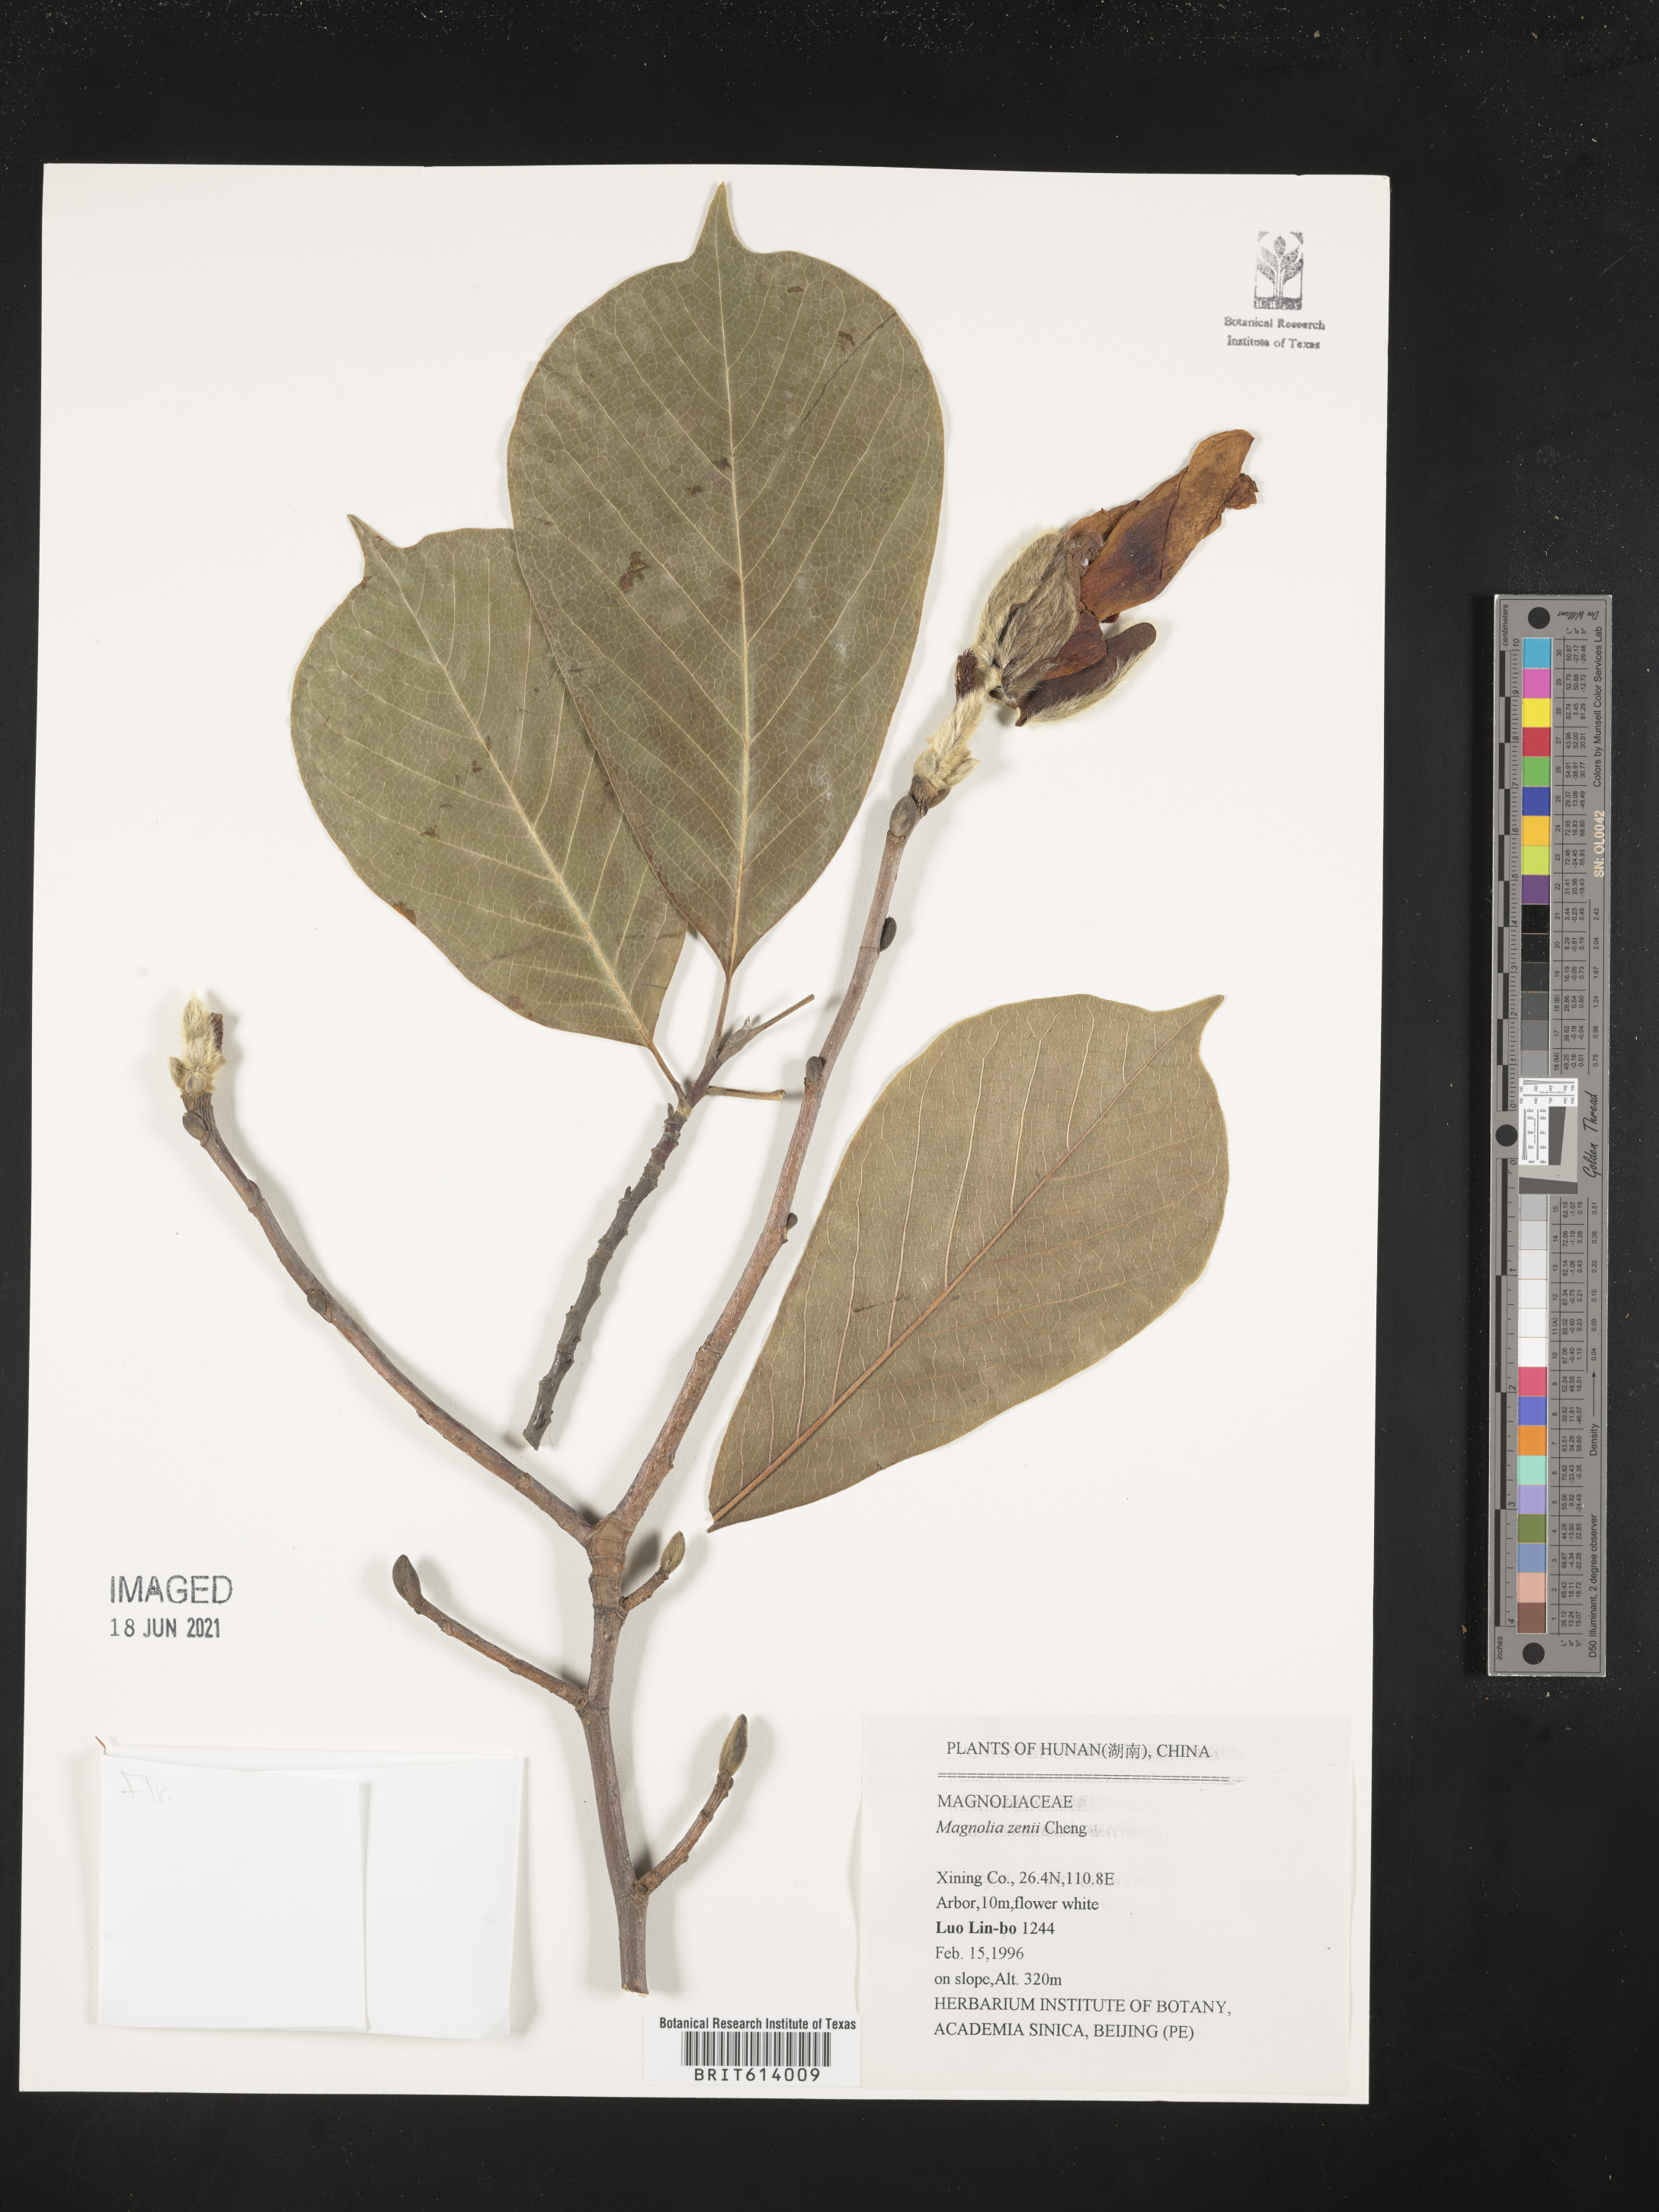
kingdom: Plantae
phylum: Tracheophyta
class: Magnoliopsida
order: Magnoliales
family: Magnoliaceae
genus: Magnolia
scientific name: Magnolia zenii
